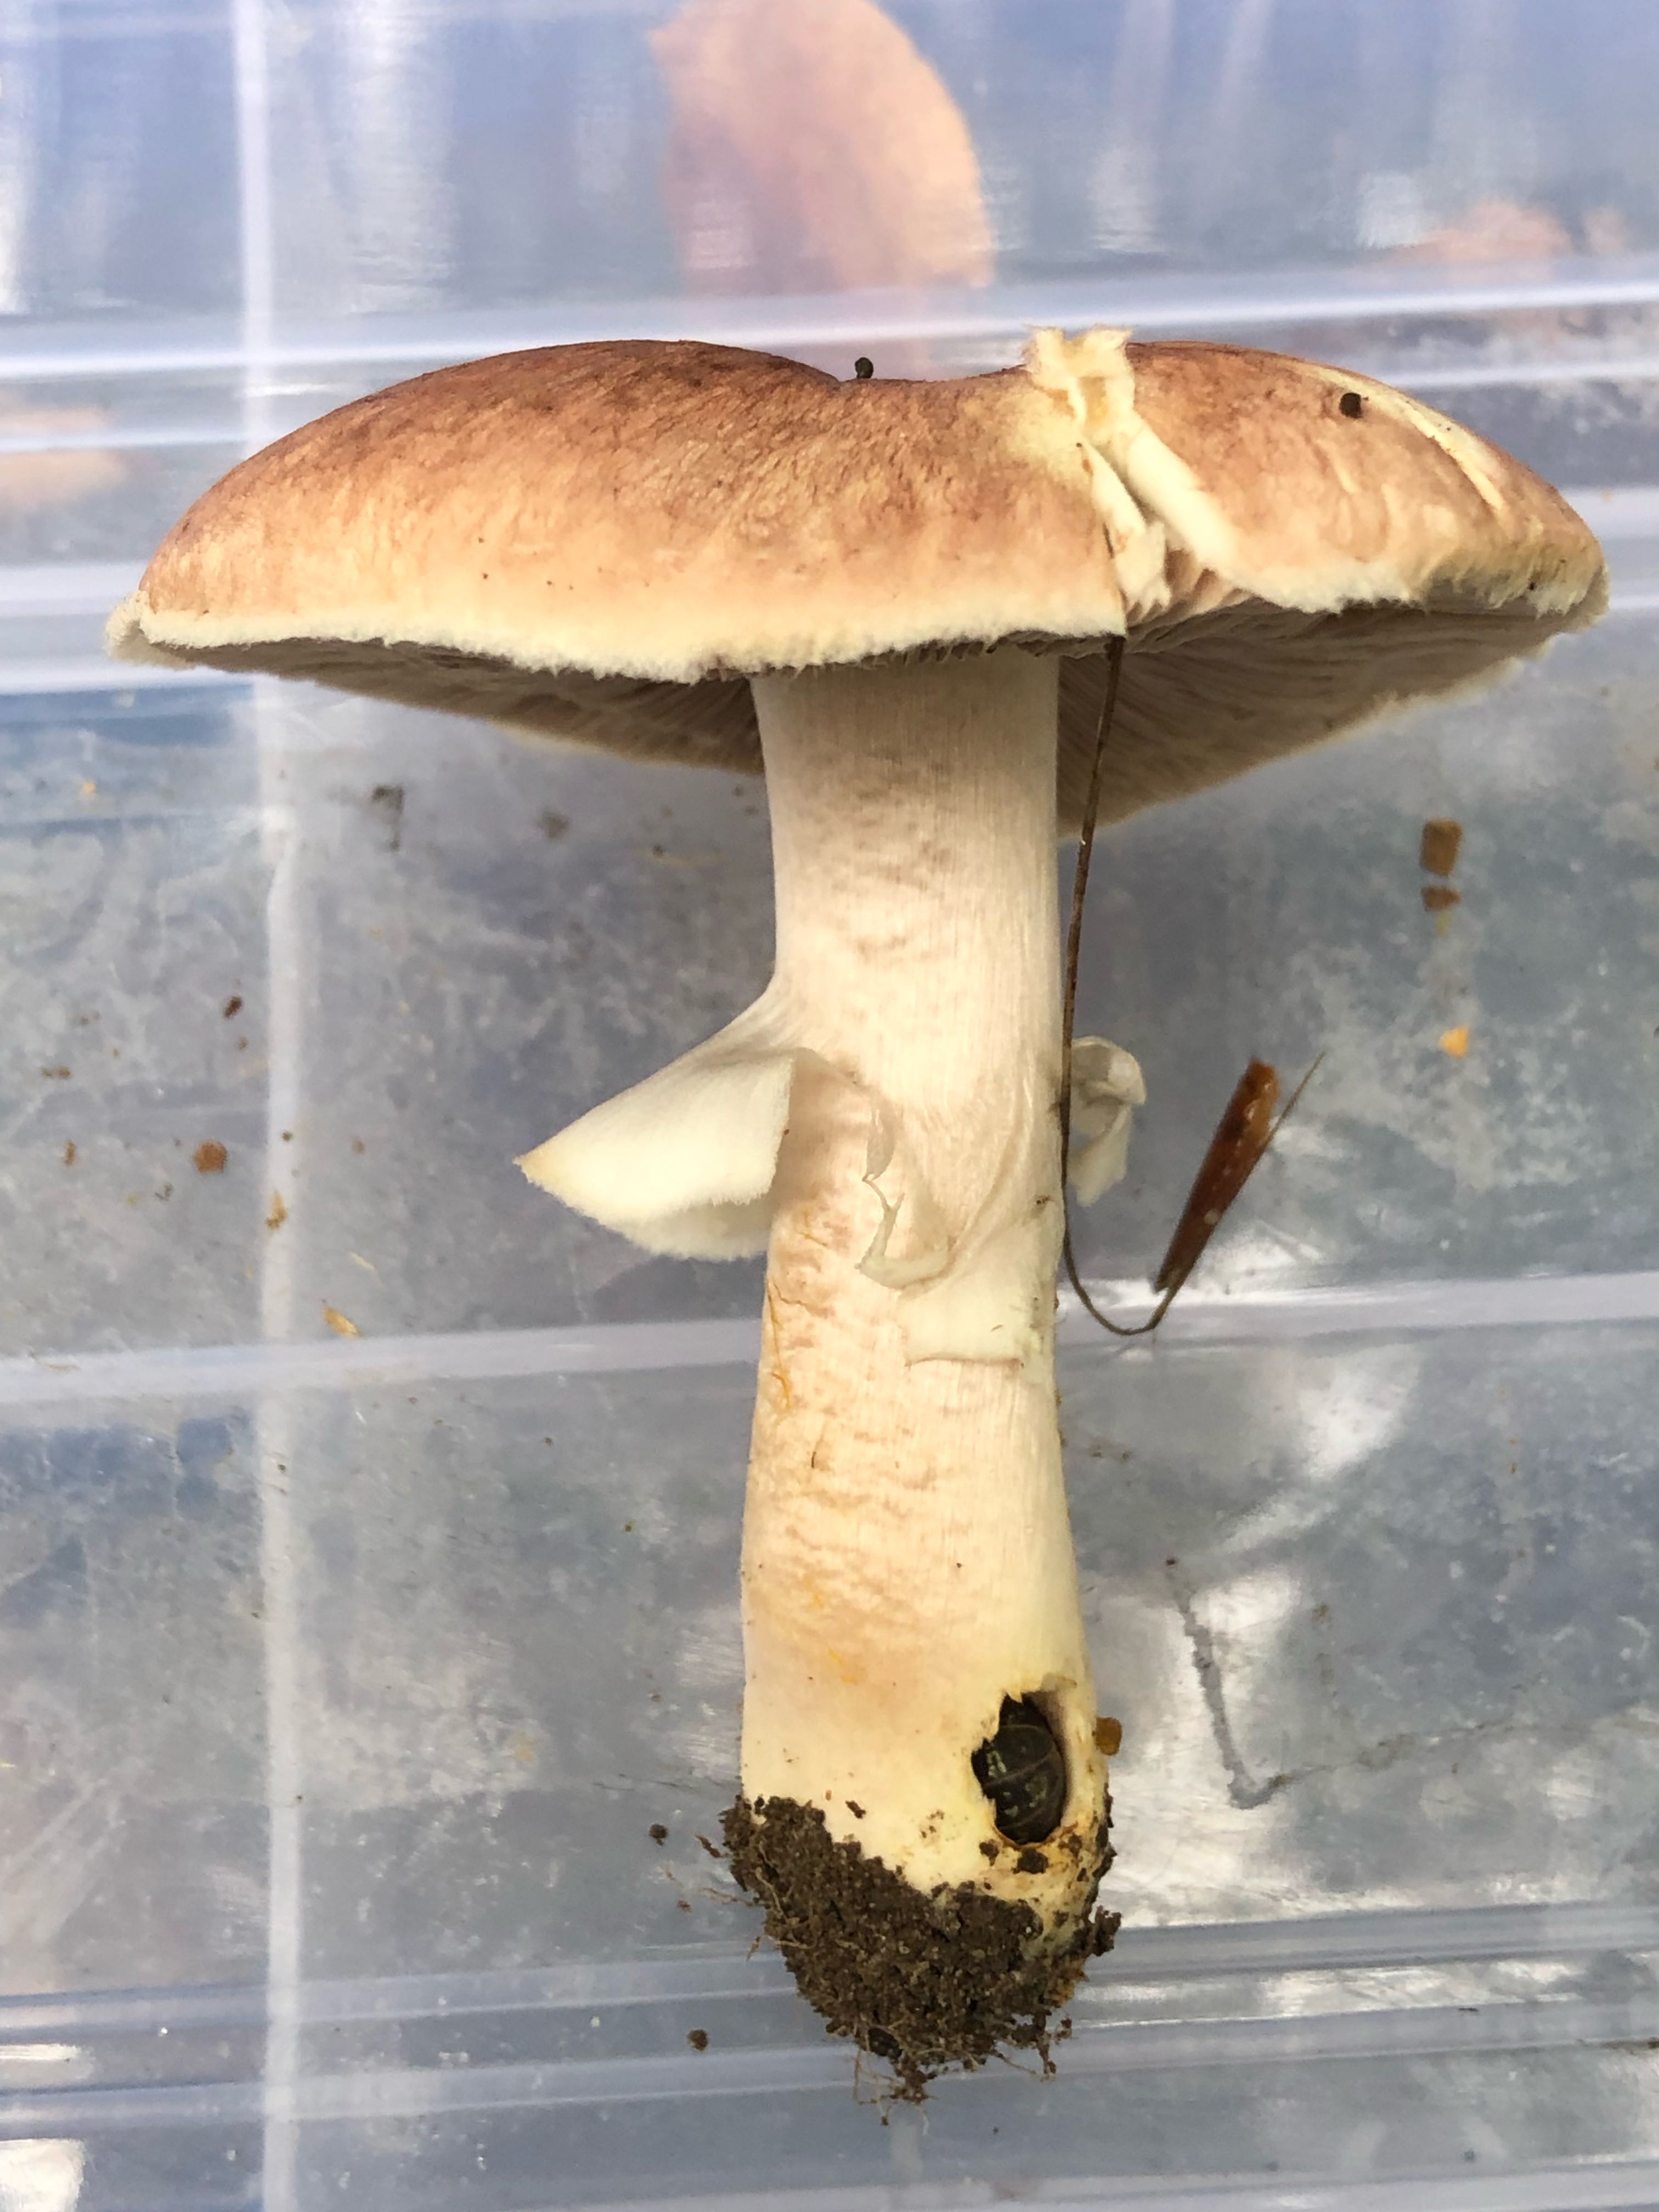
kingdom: Fungi
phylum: Basidiomycota
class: Agaricomycetes
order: Agaricales
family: Agaricaceae
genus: Agaricus
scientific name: Agaricus brunneolus
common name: purpur-champignon
